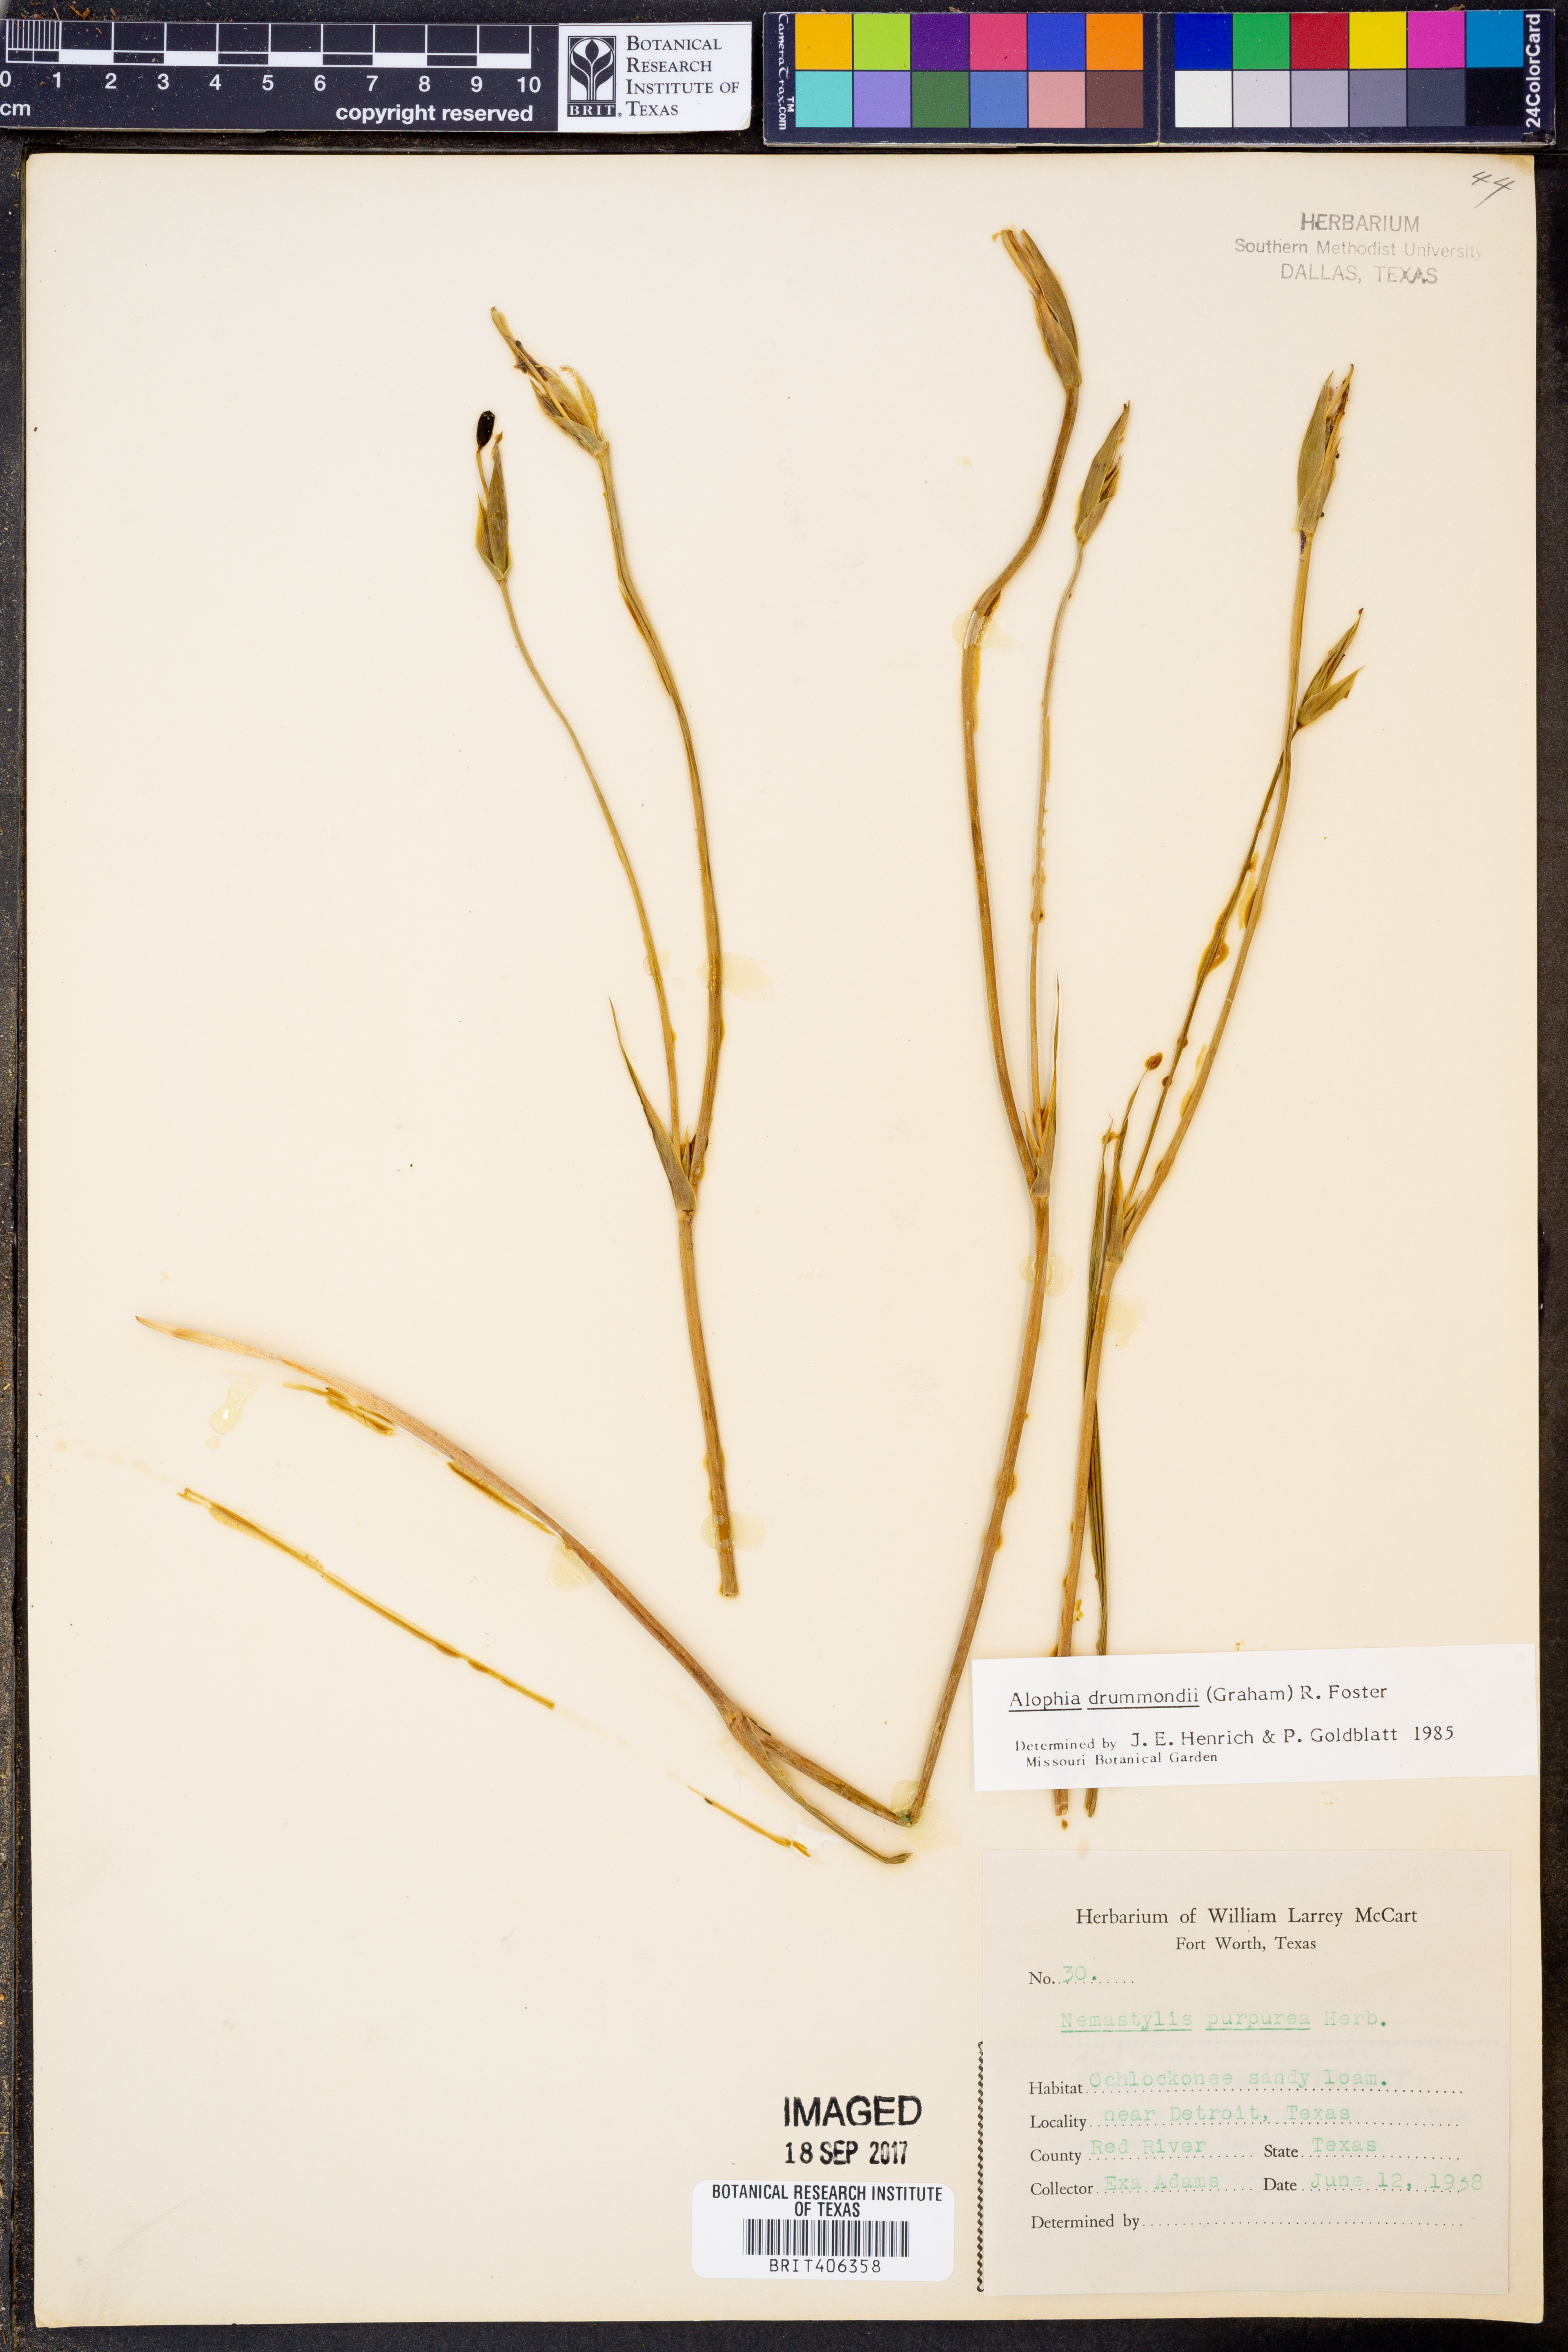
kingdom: Plantae
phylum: Tracheophyta
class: Liliopsida
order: Asparagales
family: Iridaceae
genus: Alophia
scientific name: Alophia drummondii
